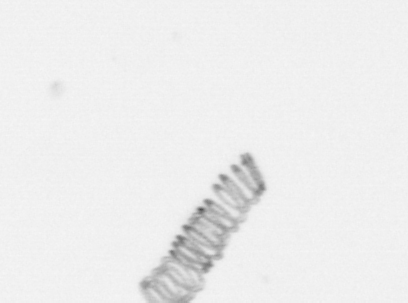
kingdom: Chromista
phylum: Ochrophyta
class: Bacillariophyceae
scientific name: Bacillariophyceae
